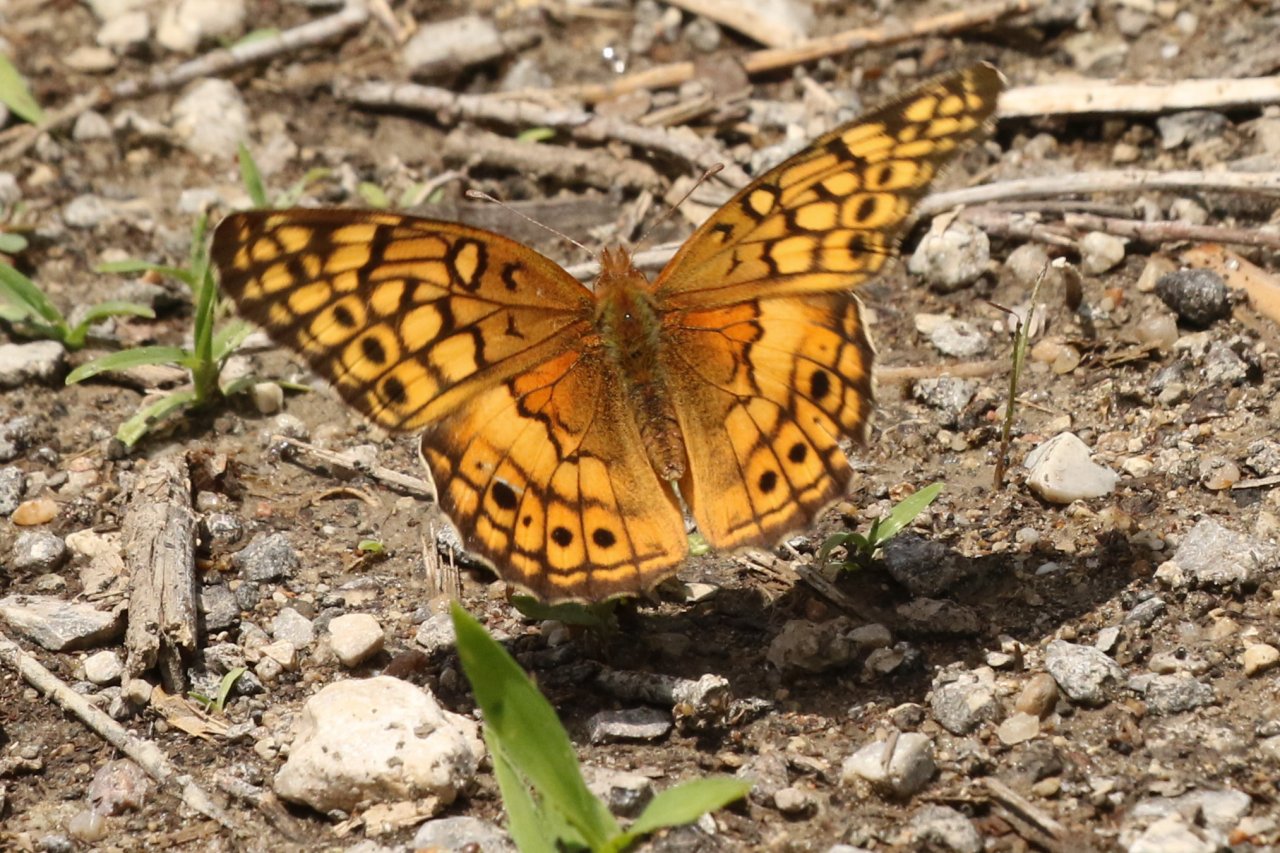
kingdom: Animalia
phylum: Arthropoda
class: Insecta
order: Lepidoptera
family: Nymphalidae
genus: Euptoieta
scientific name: Euptoieta claudia
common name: Variegated Fritillary
